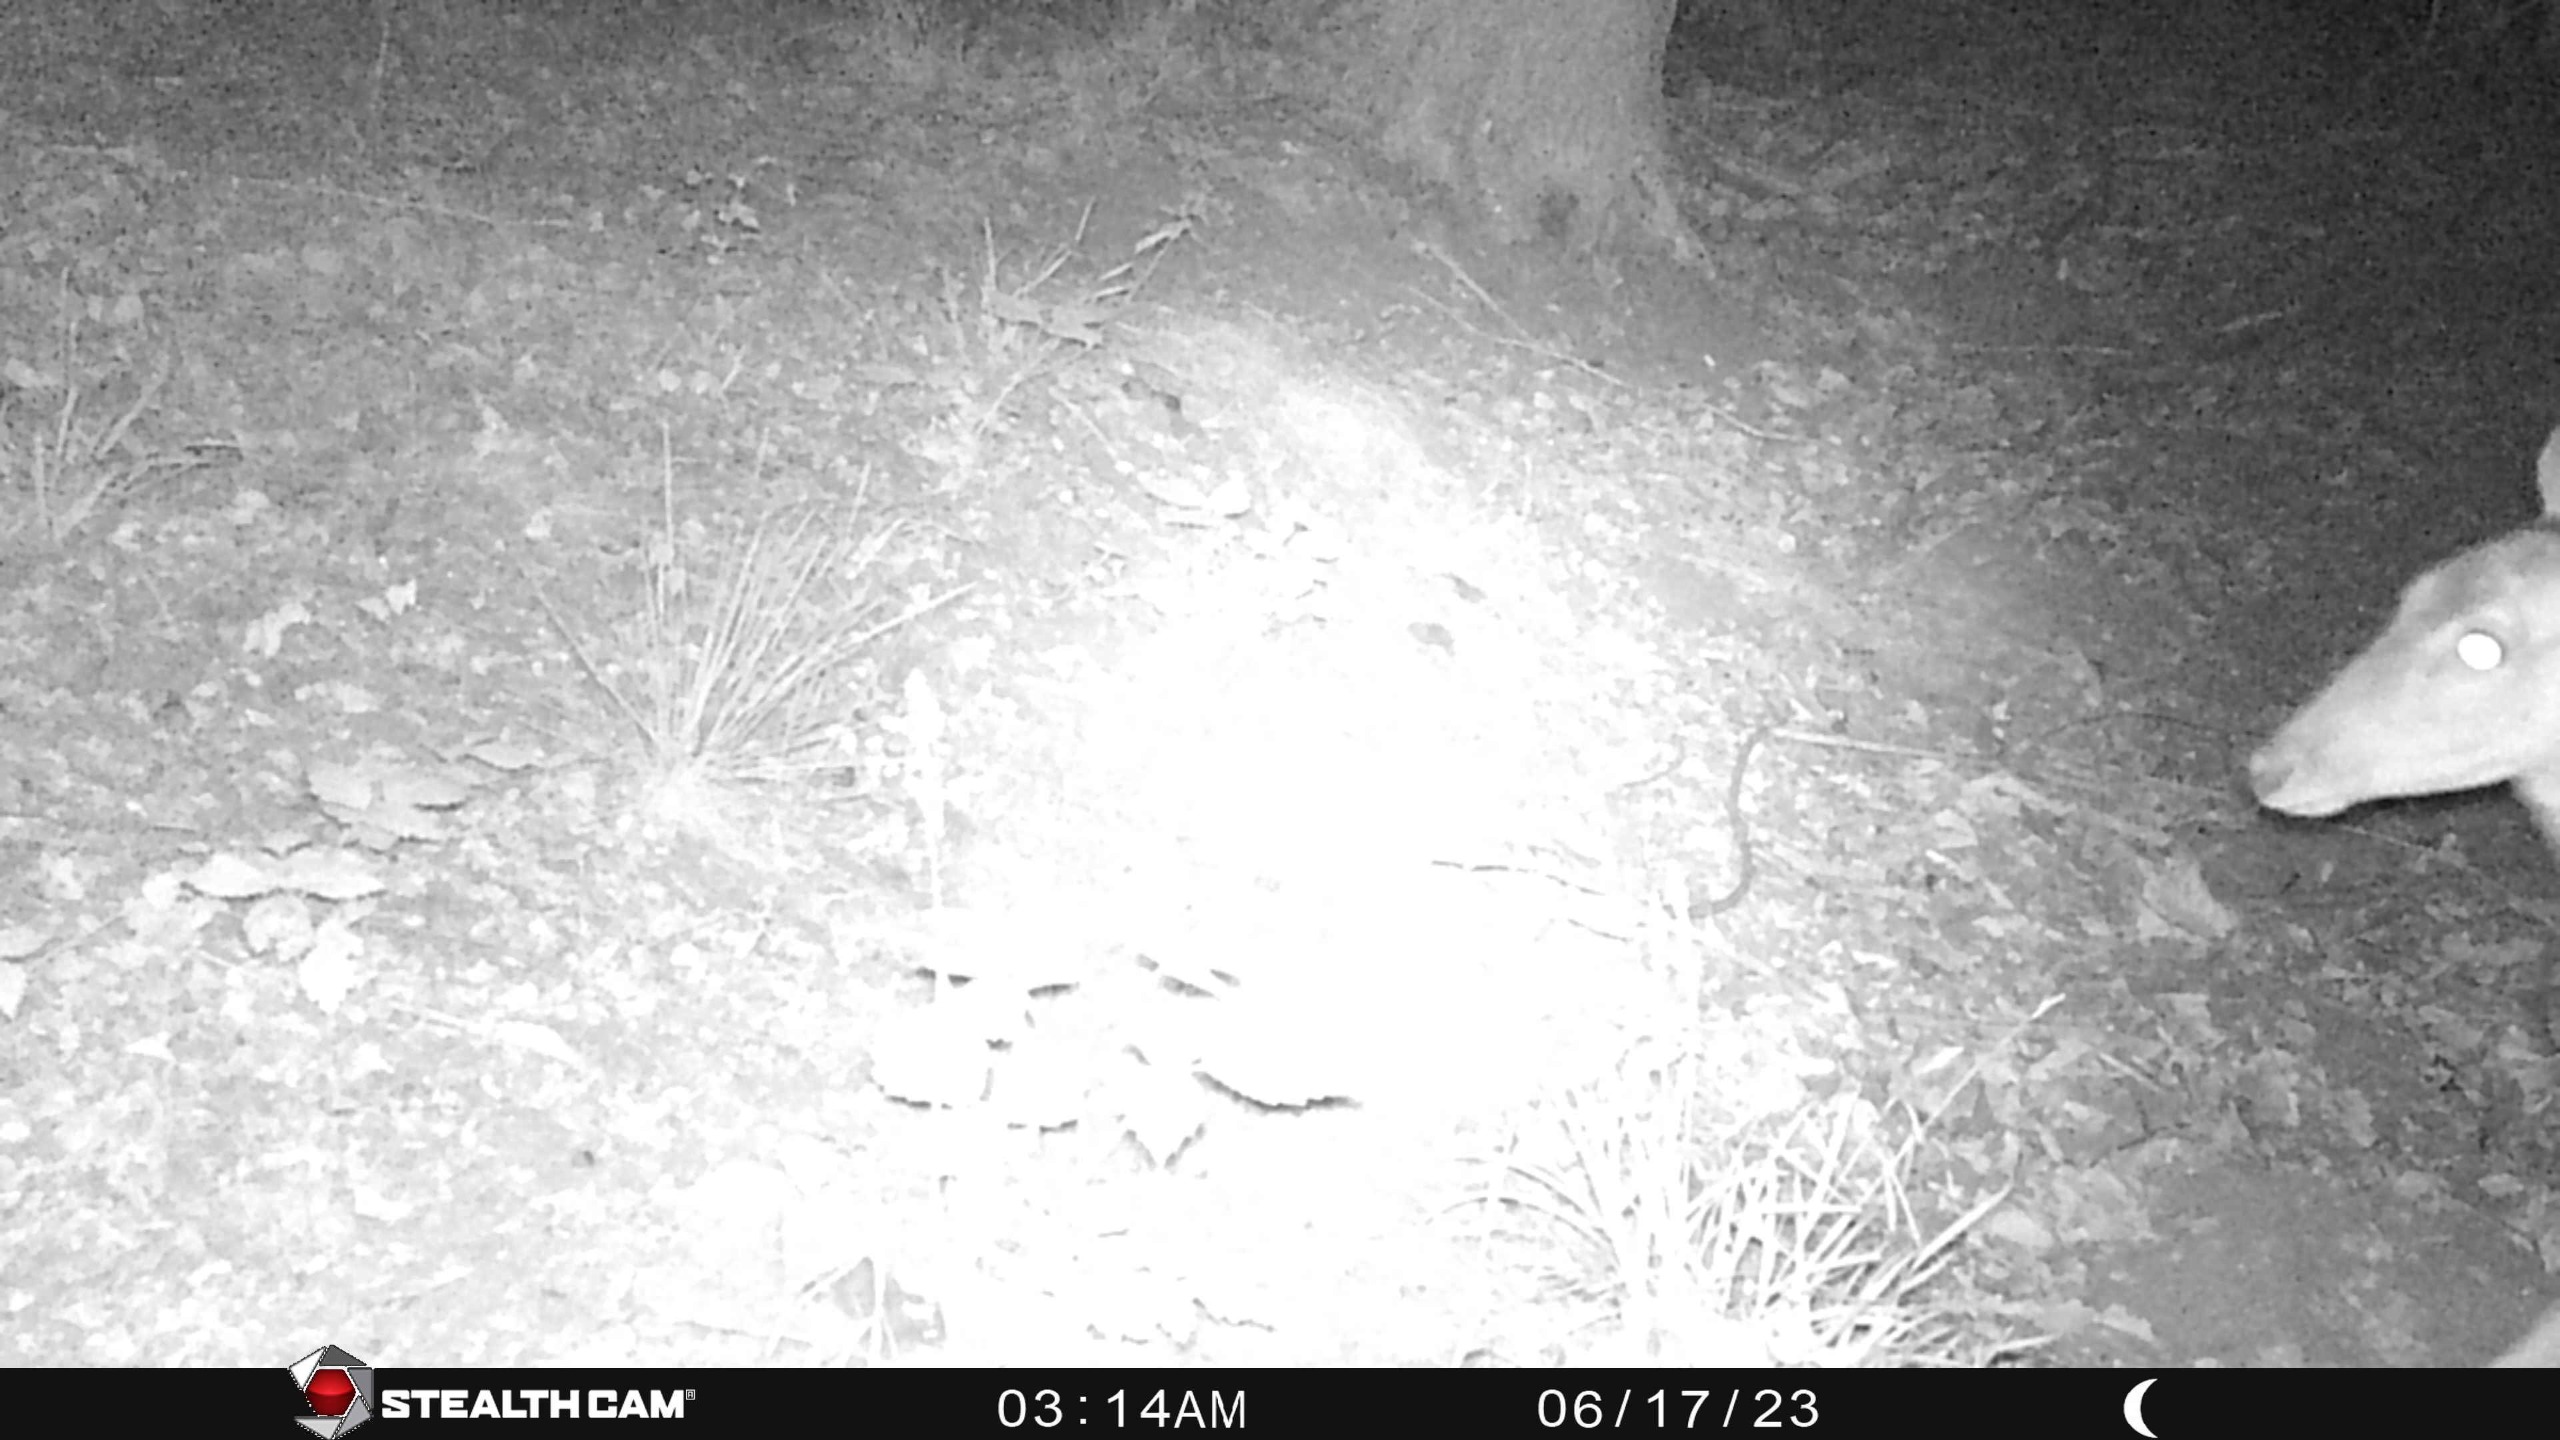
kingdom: Animalia
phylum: Chordata
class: Mammalia
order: Artiodactyla
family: Cervidae
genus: Dama
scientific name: Dama dama
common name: Dådyr
